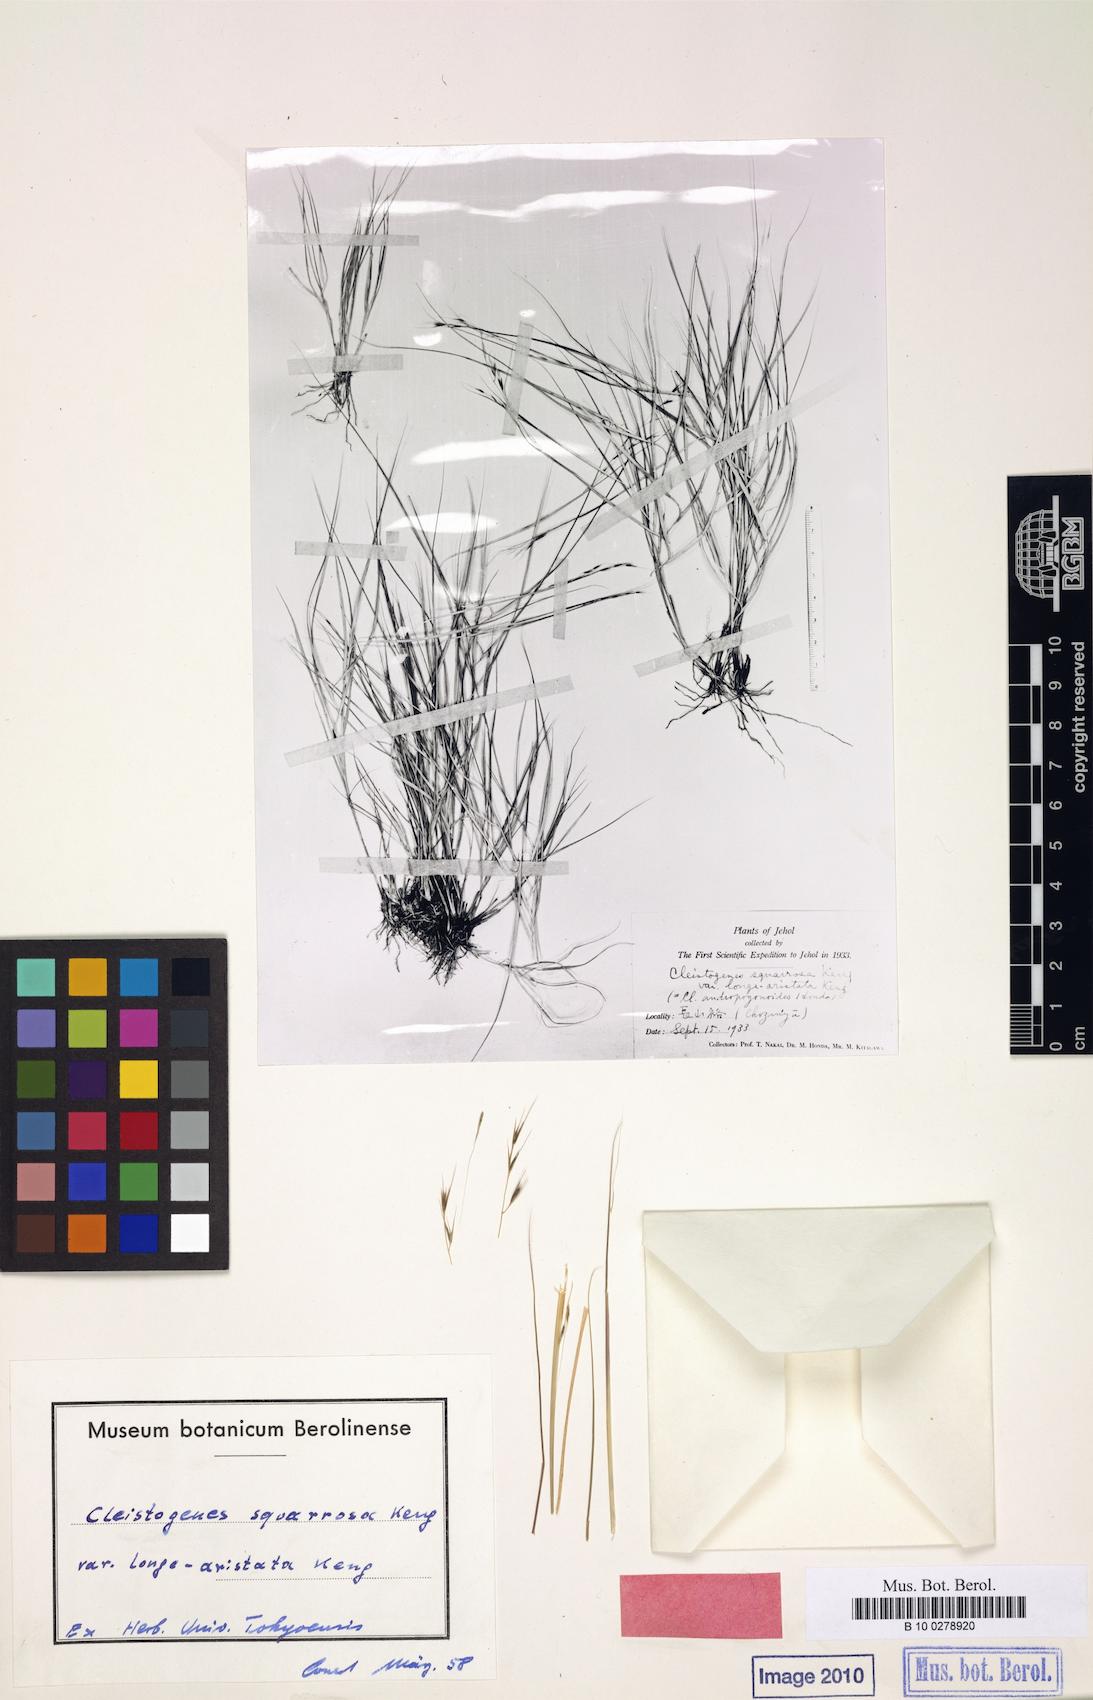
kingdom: Plantae
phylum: Tracheophyta
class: Liliopsida
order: Poales
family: Poaceae
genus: Cleistogenes
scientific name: Cleistogenes squarrosa
